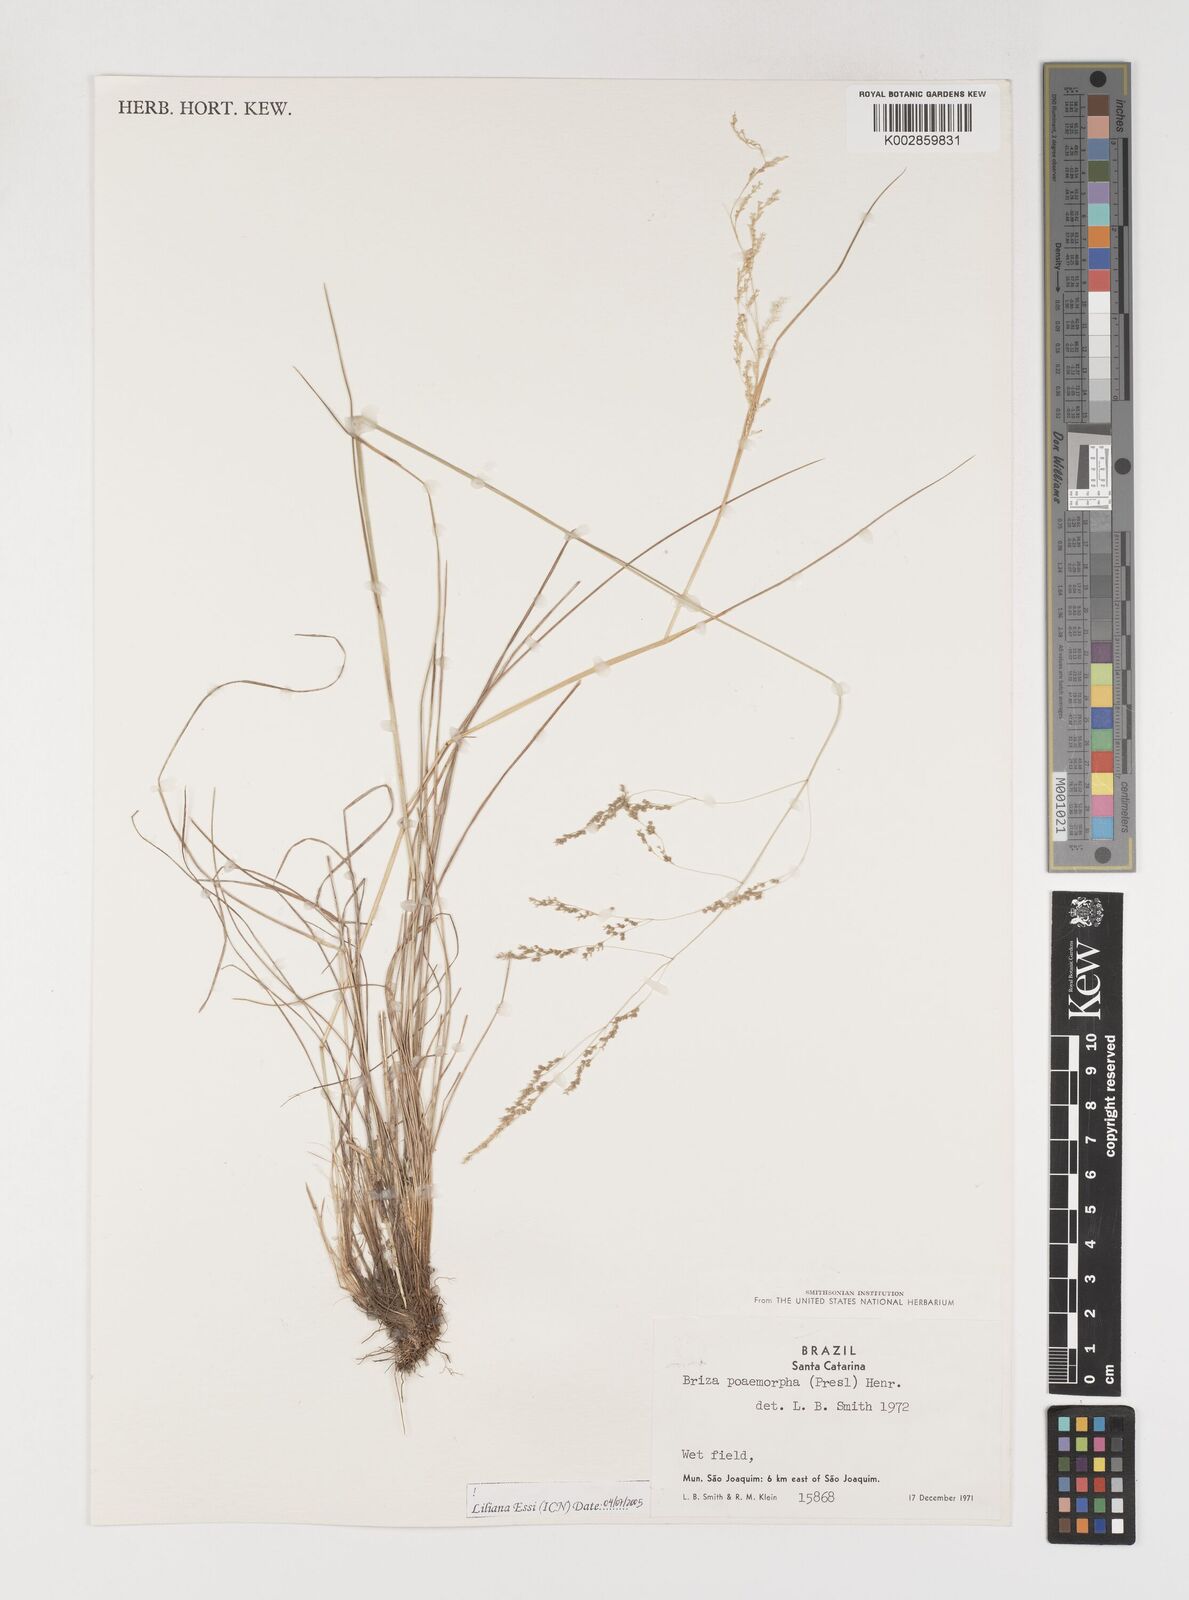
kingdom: Plantae
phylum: Tracheophyta
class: Liliopsida
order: Poales
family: Poaceae
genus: Microbriza
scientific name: Microbriza poimorpha
